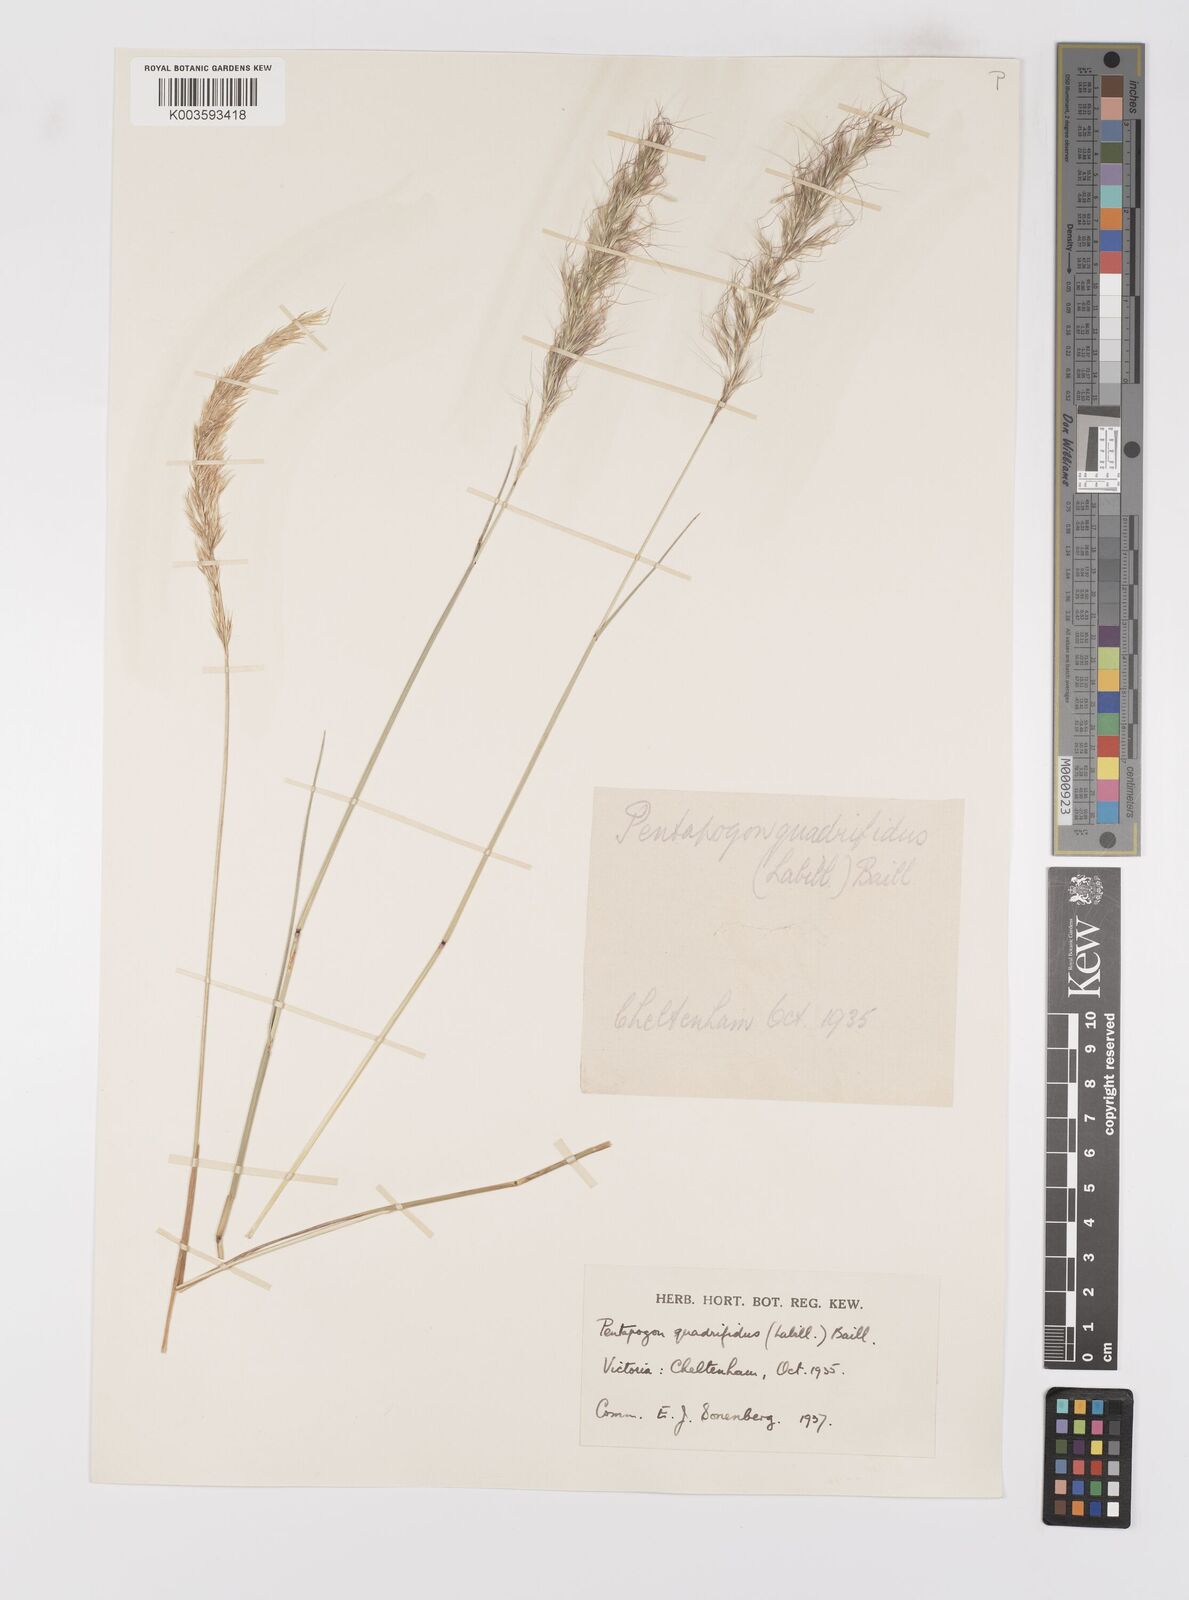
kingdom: Plantae
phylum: Tracheophyta
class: Liliopsida
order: Poales
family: Poaceae
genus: Pentapogon
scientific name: Pentapogon quadrifidus
